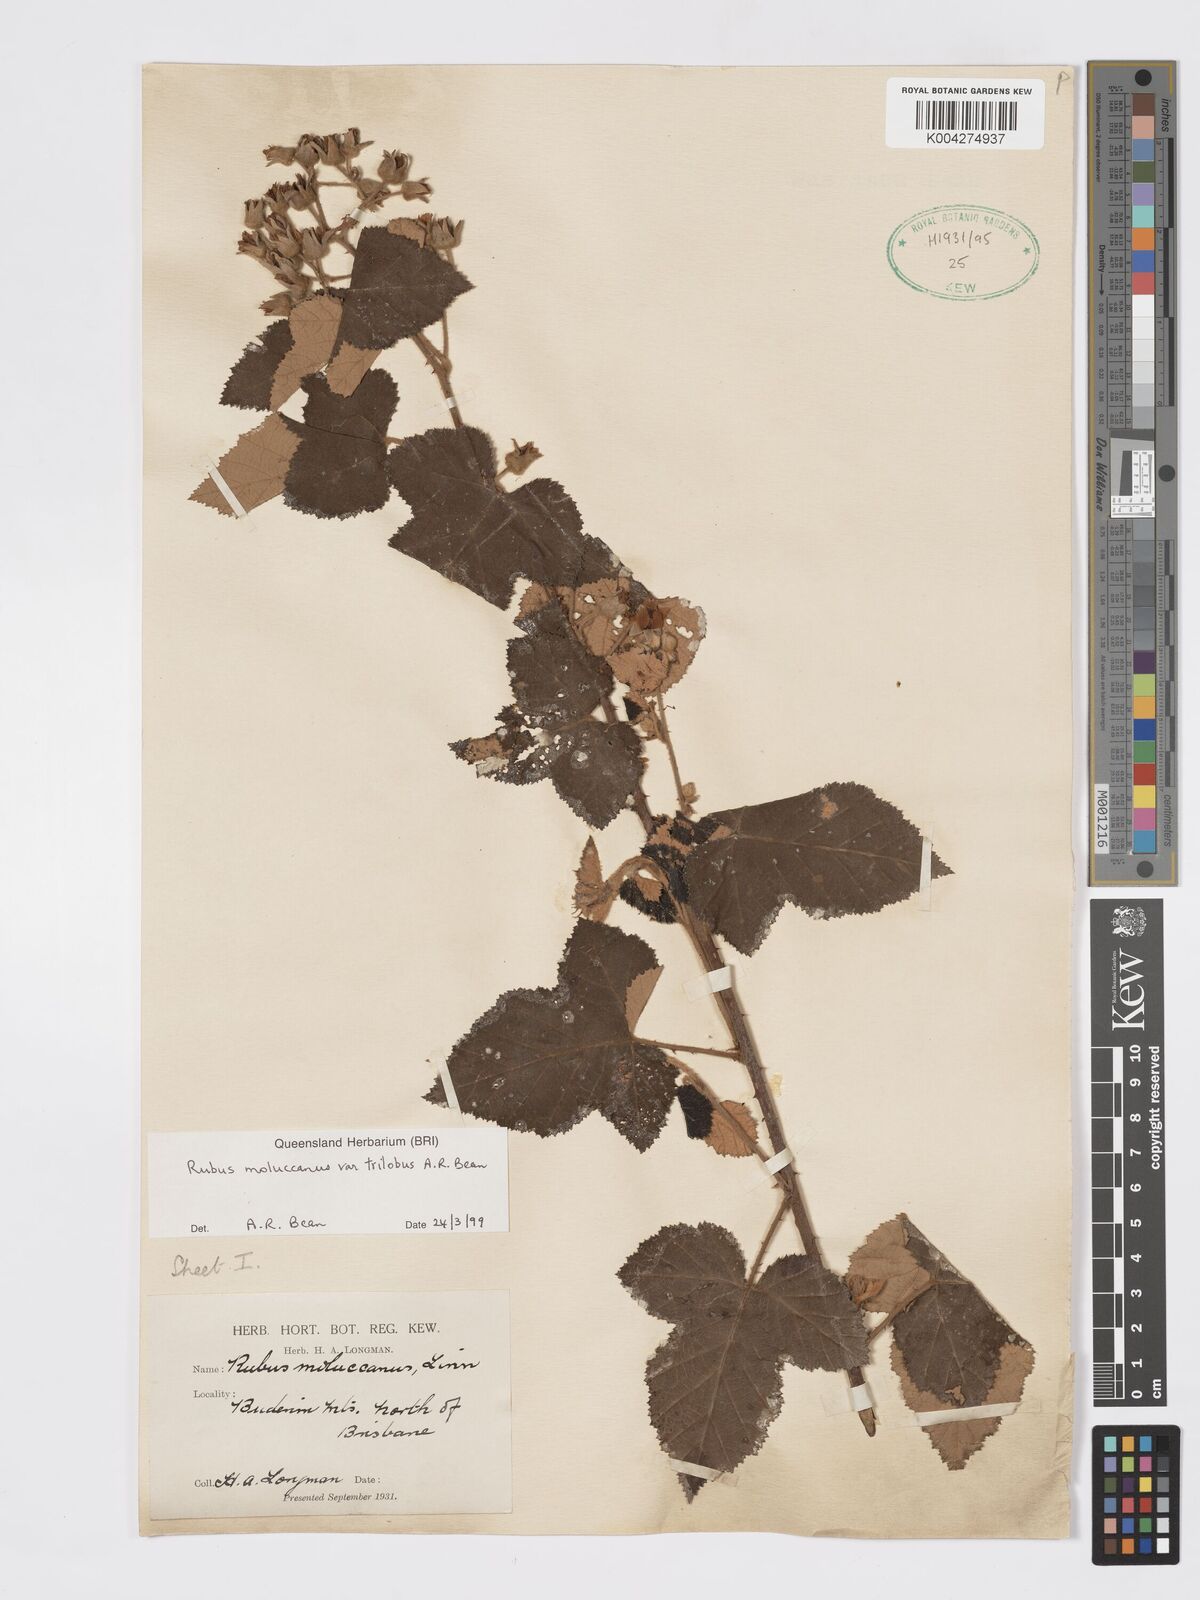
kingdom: Plantae
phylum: Tracheophyta
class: Magnoliopsida
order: Rosales
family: Rosaceae
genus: Rubus
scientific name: Rubus moluccanus
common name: Wild raspberry
